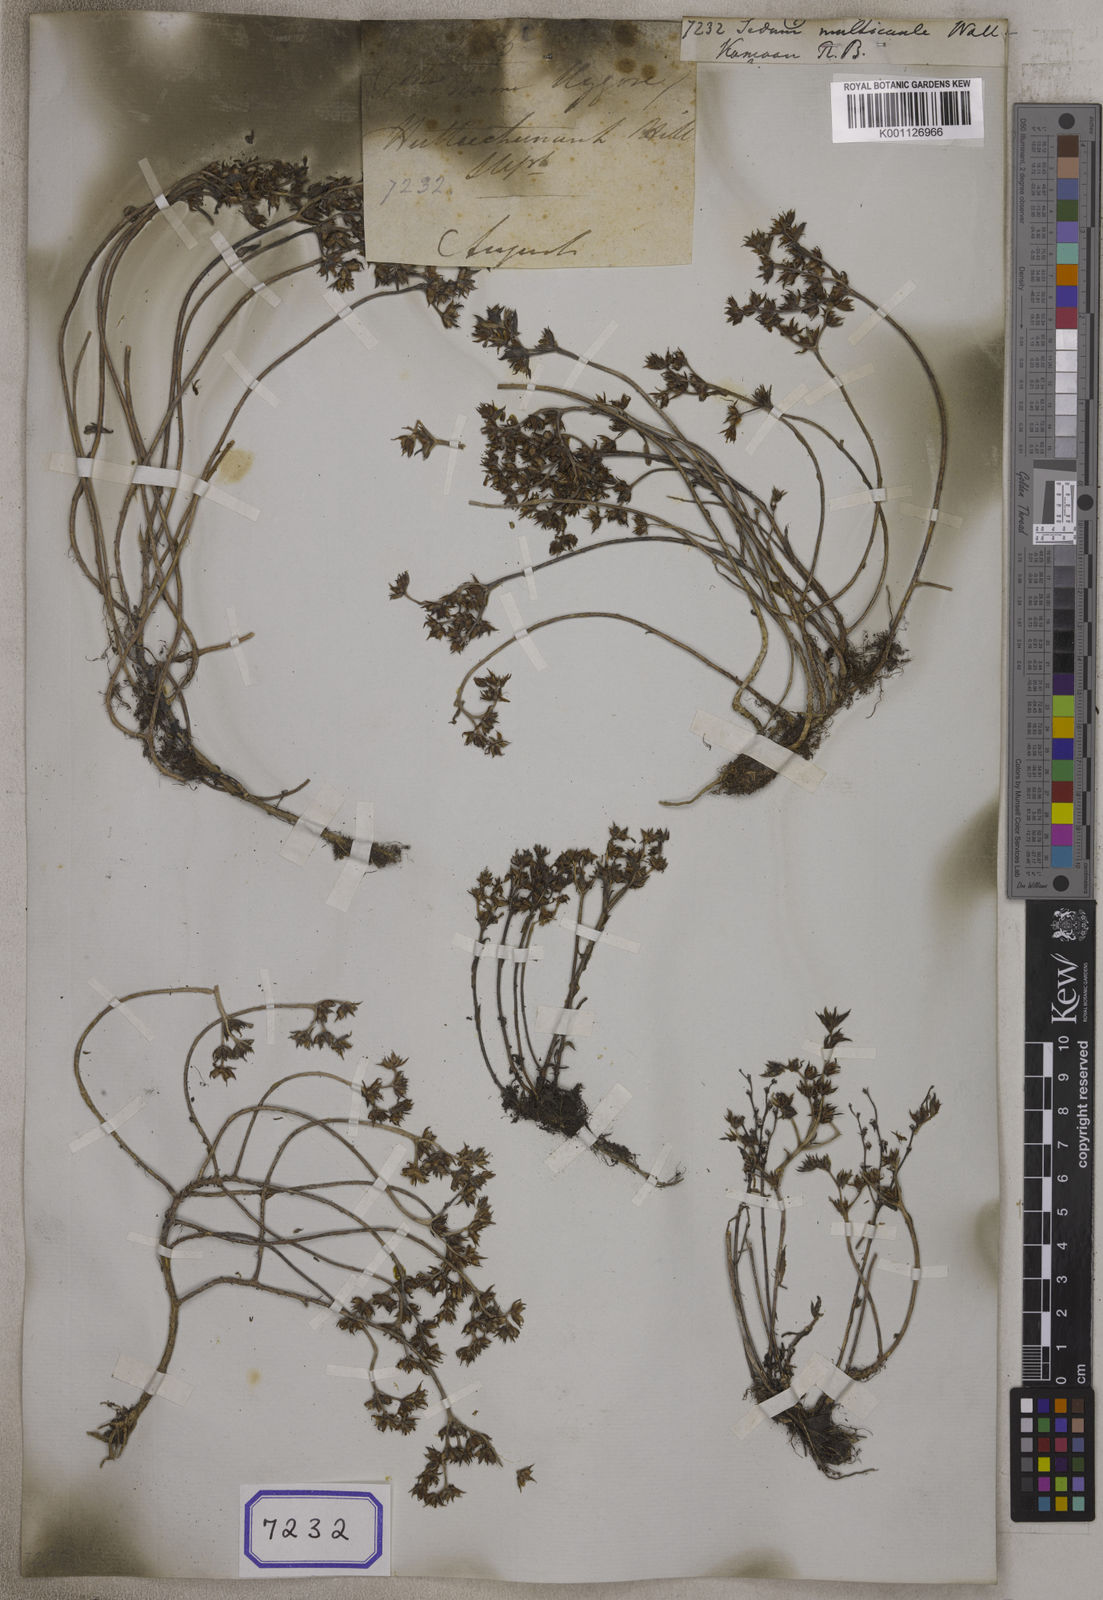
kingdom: Plantae
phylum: Tracheophyta
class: Magnoliopsida
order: Saxifragales
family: Crassulaceae
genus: Sedum
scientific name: Sedum
